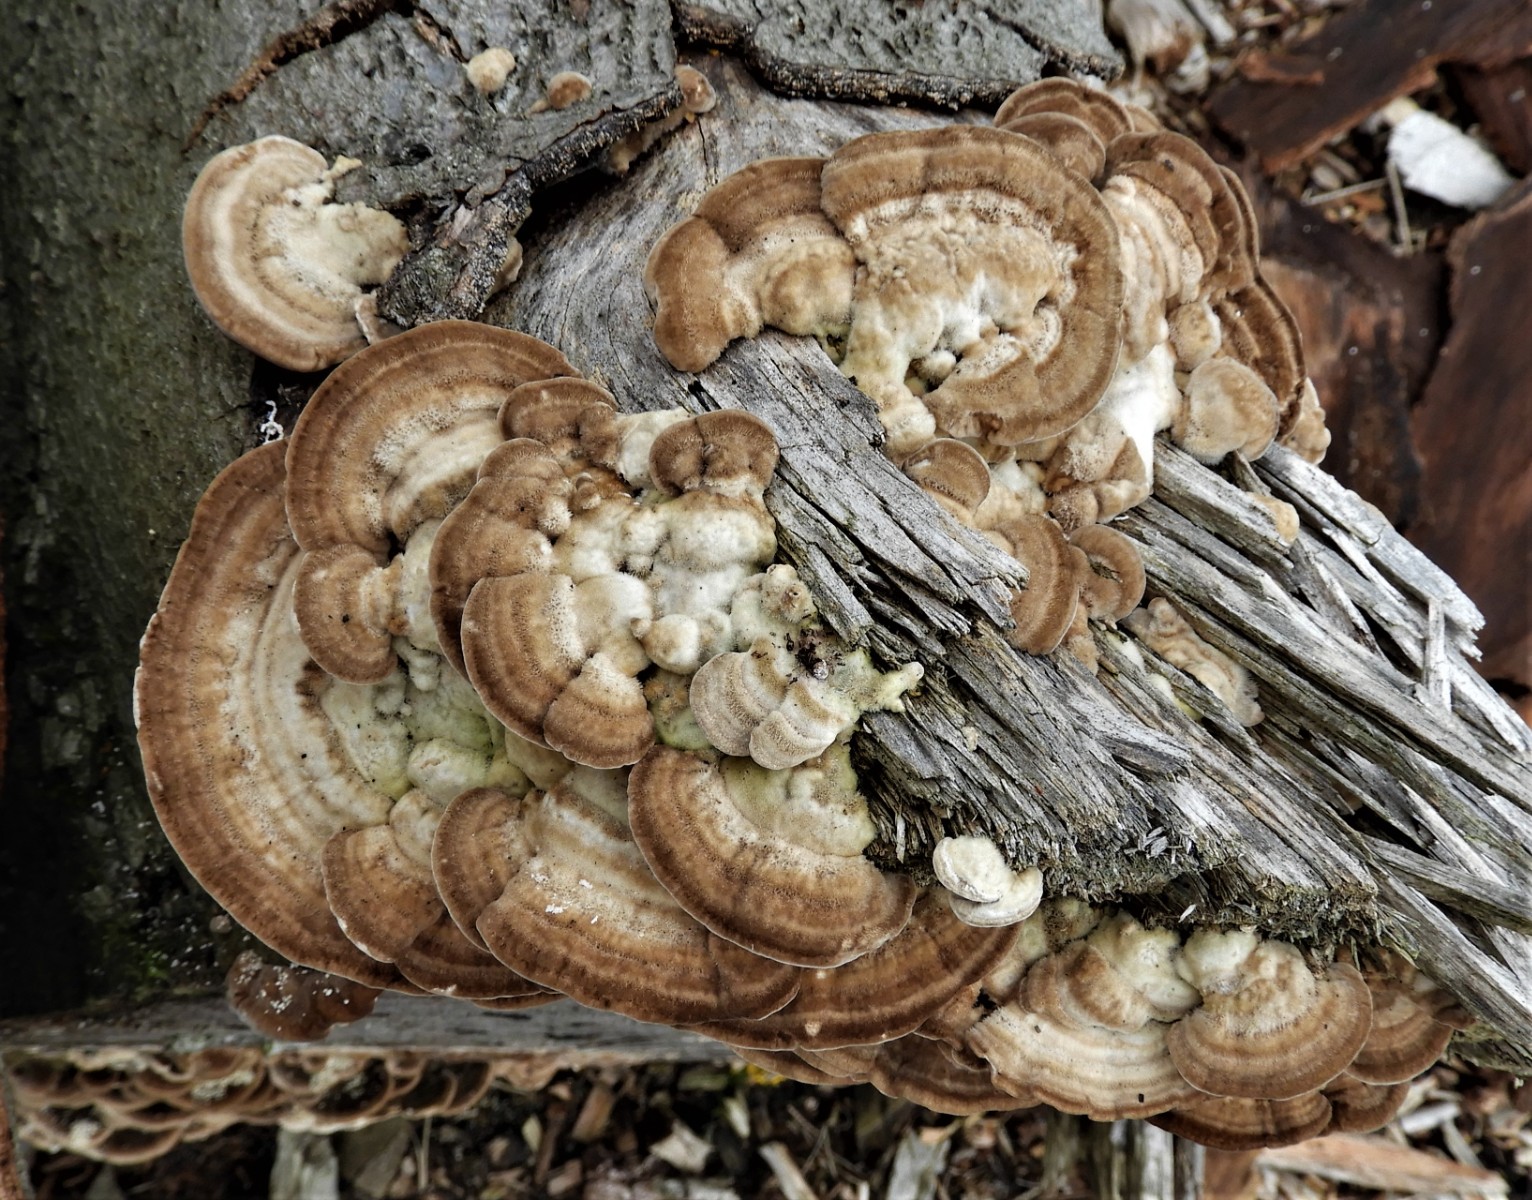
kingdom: Fungi
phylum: Basidiomycota
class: Agaricomycetes
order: Polyporales
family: Polyporaceae
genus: Lenzites
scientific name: Lenzites betulinus
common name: birke-læderporesvamp
